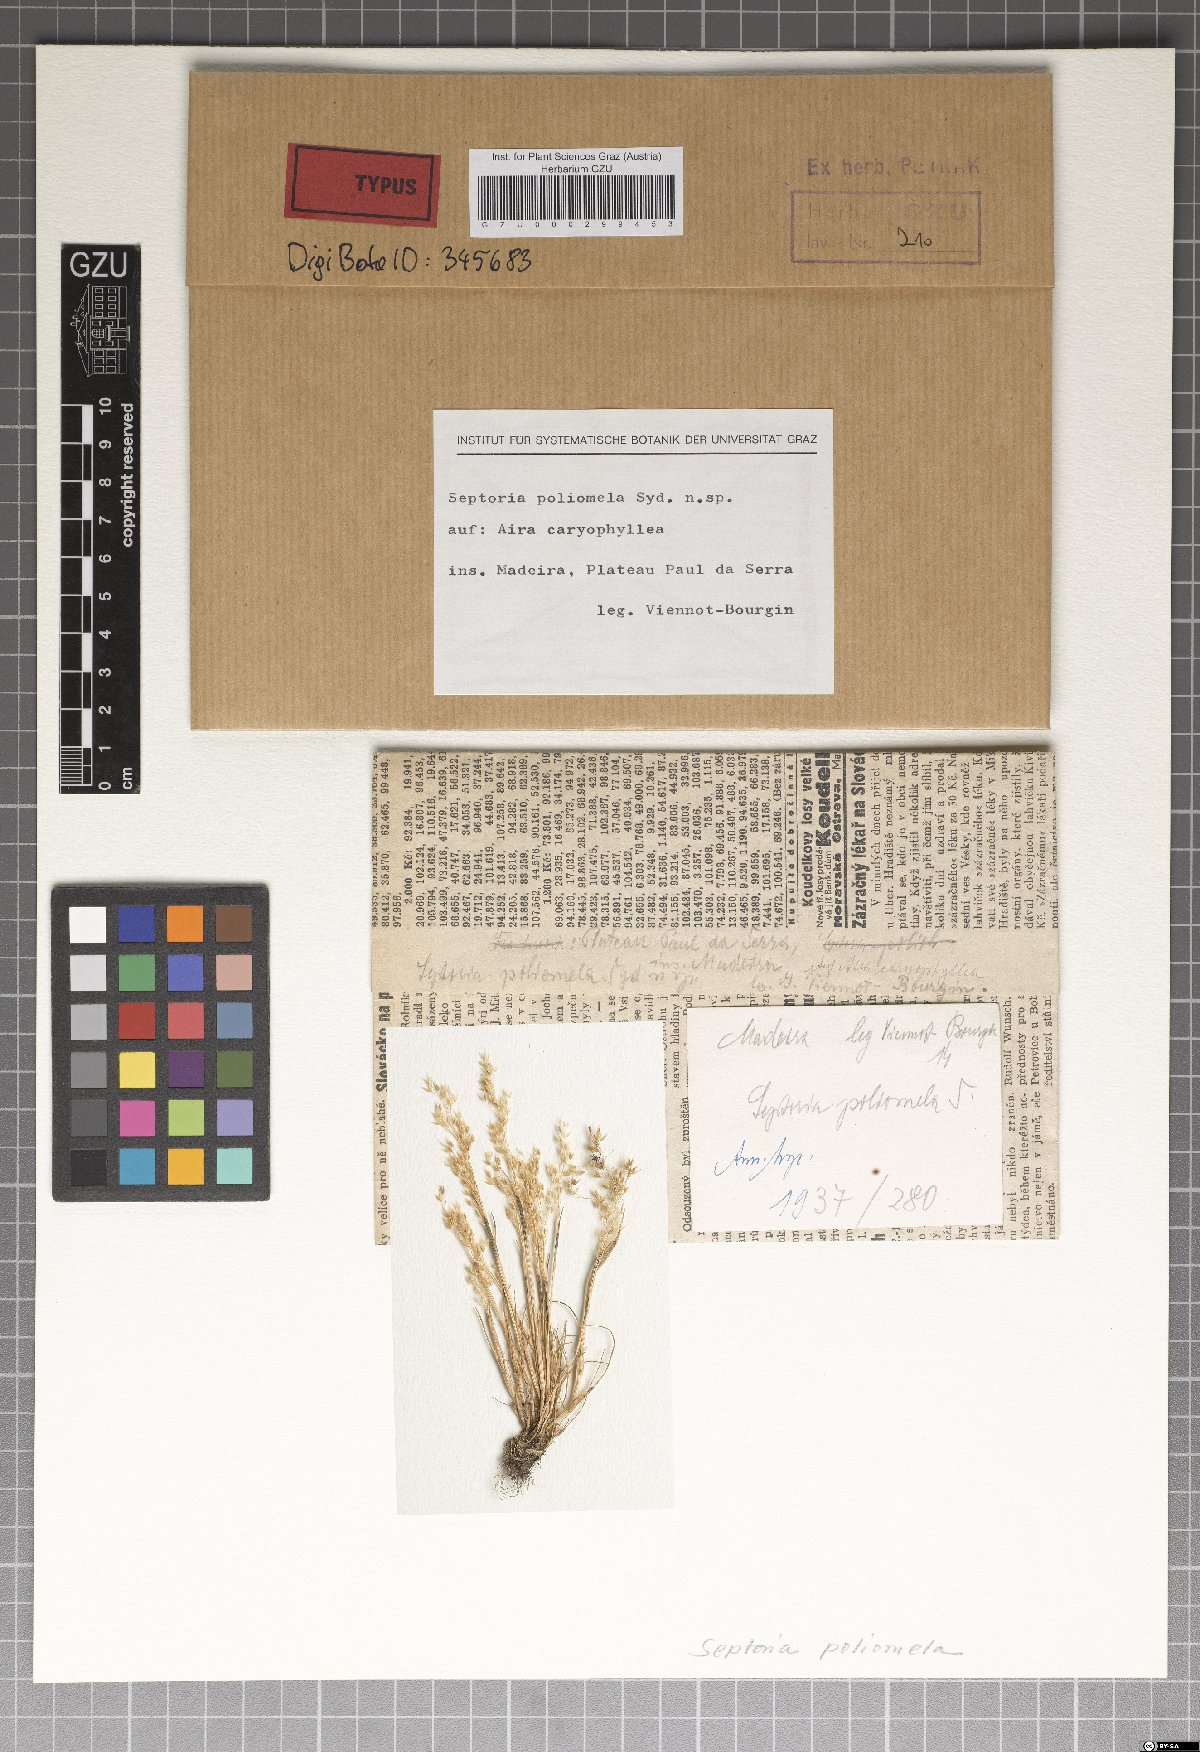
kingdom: Fungi
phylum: Ascomycota
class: Dothideomycetes
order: Capnodiales
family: Mycosphaerellaceae
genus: Septoria
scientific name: Septoria poliomela
